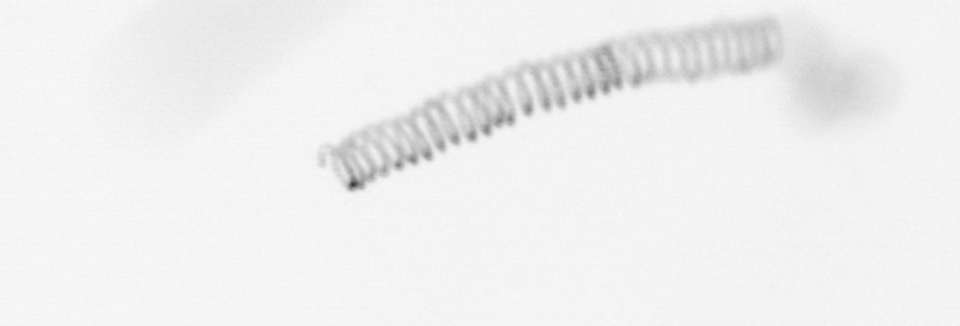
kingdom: Chromista
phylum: Ochrophyta
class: Bacillariophyceae
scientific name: Bacillariophyceae
